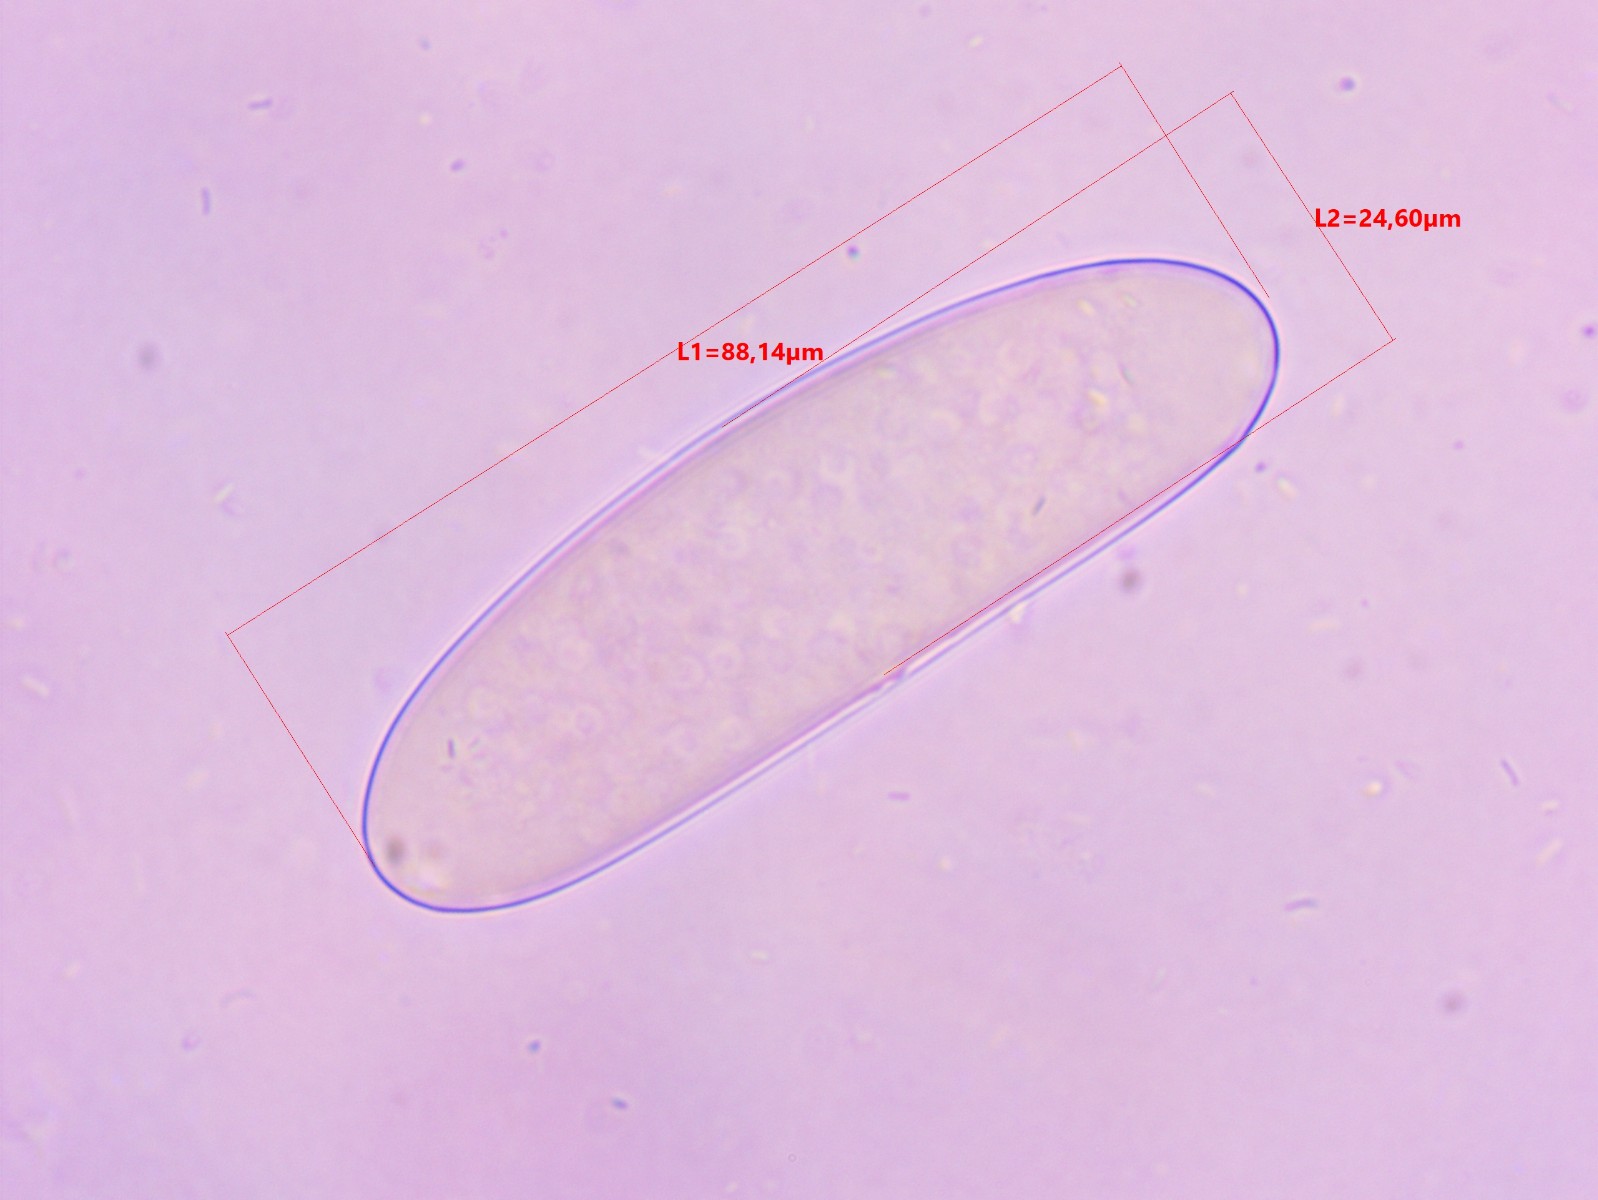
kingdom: Fungi
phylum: Ascomycota
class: Pezizomycetes
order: Pezizales
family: Morchellaceae
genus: Verpa
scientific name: Verpa bohemica
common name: rynket klokkemorkel
